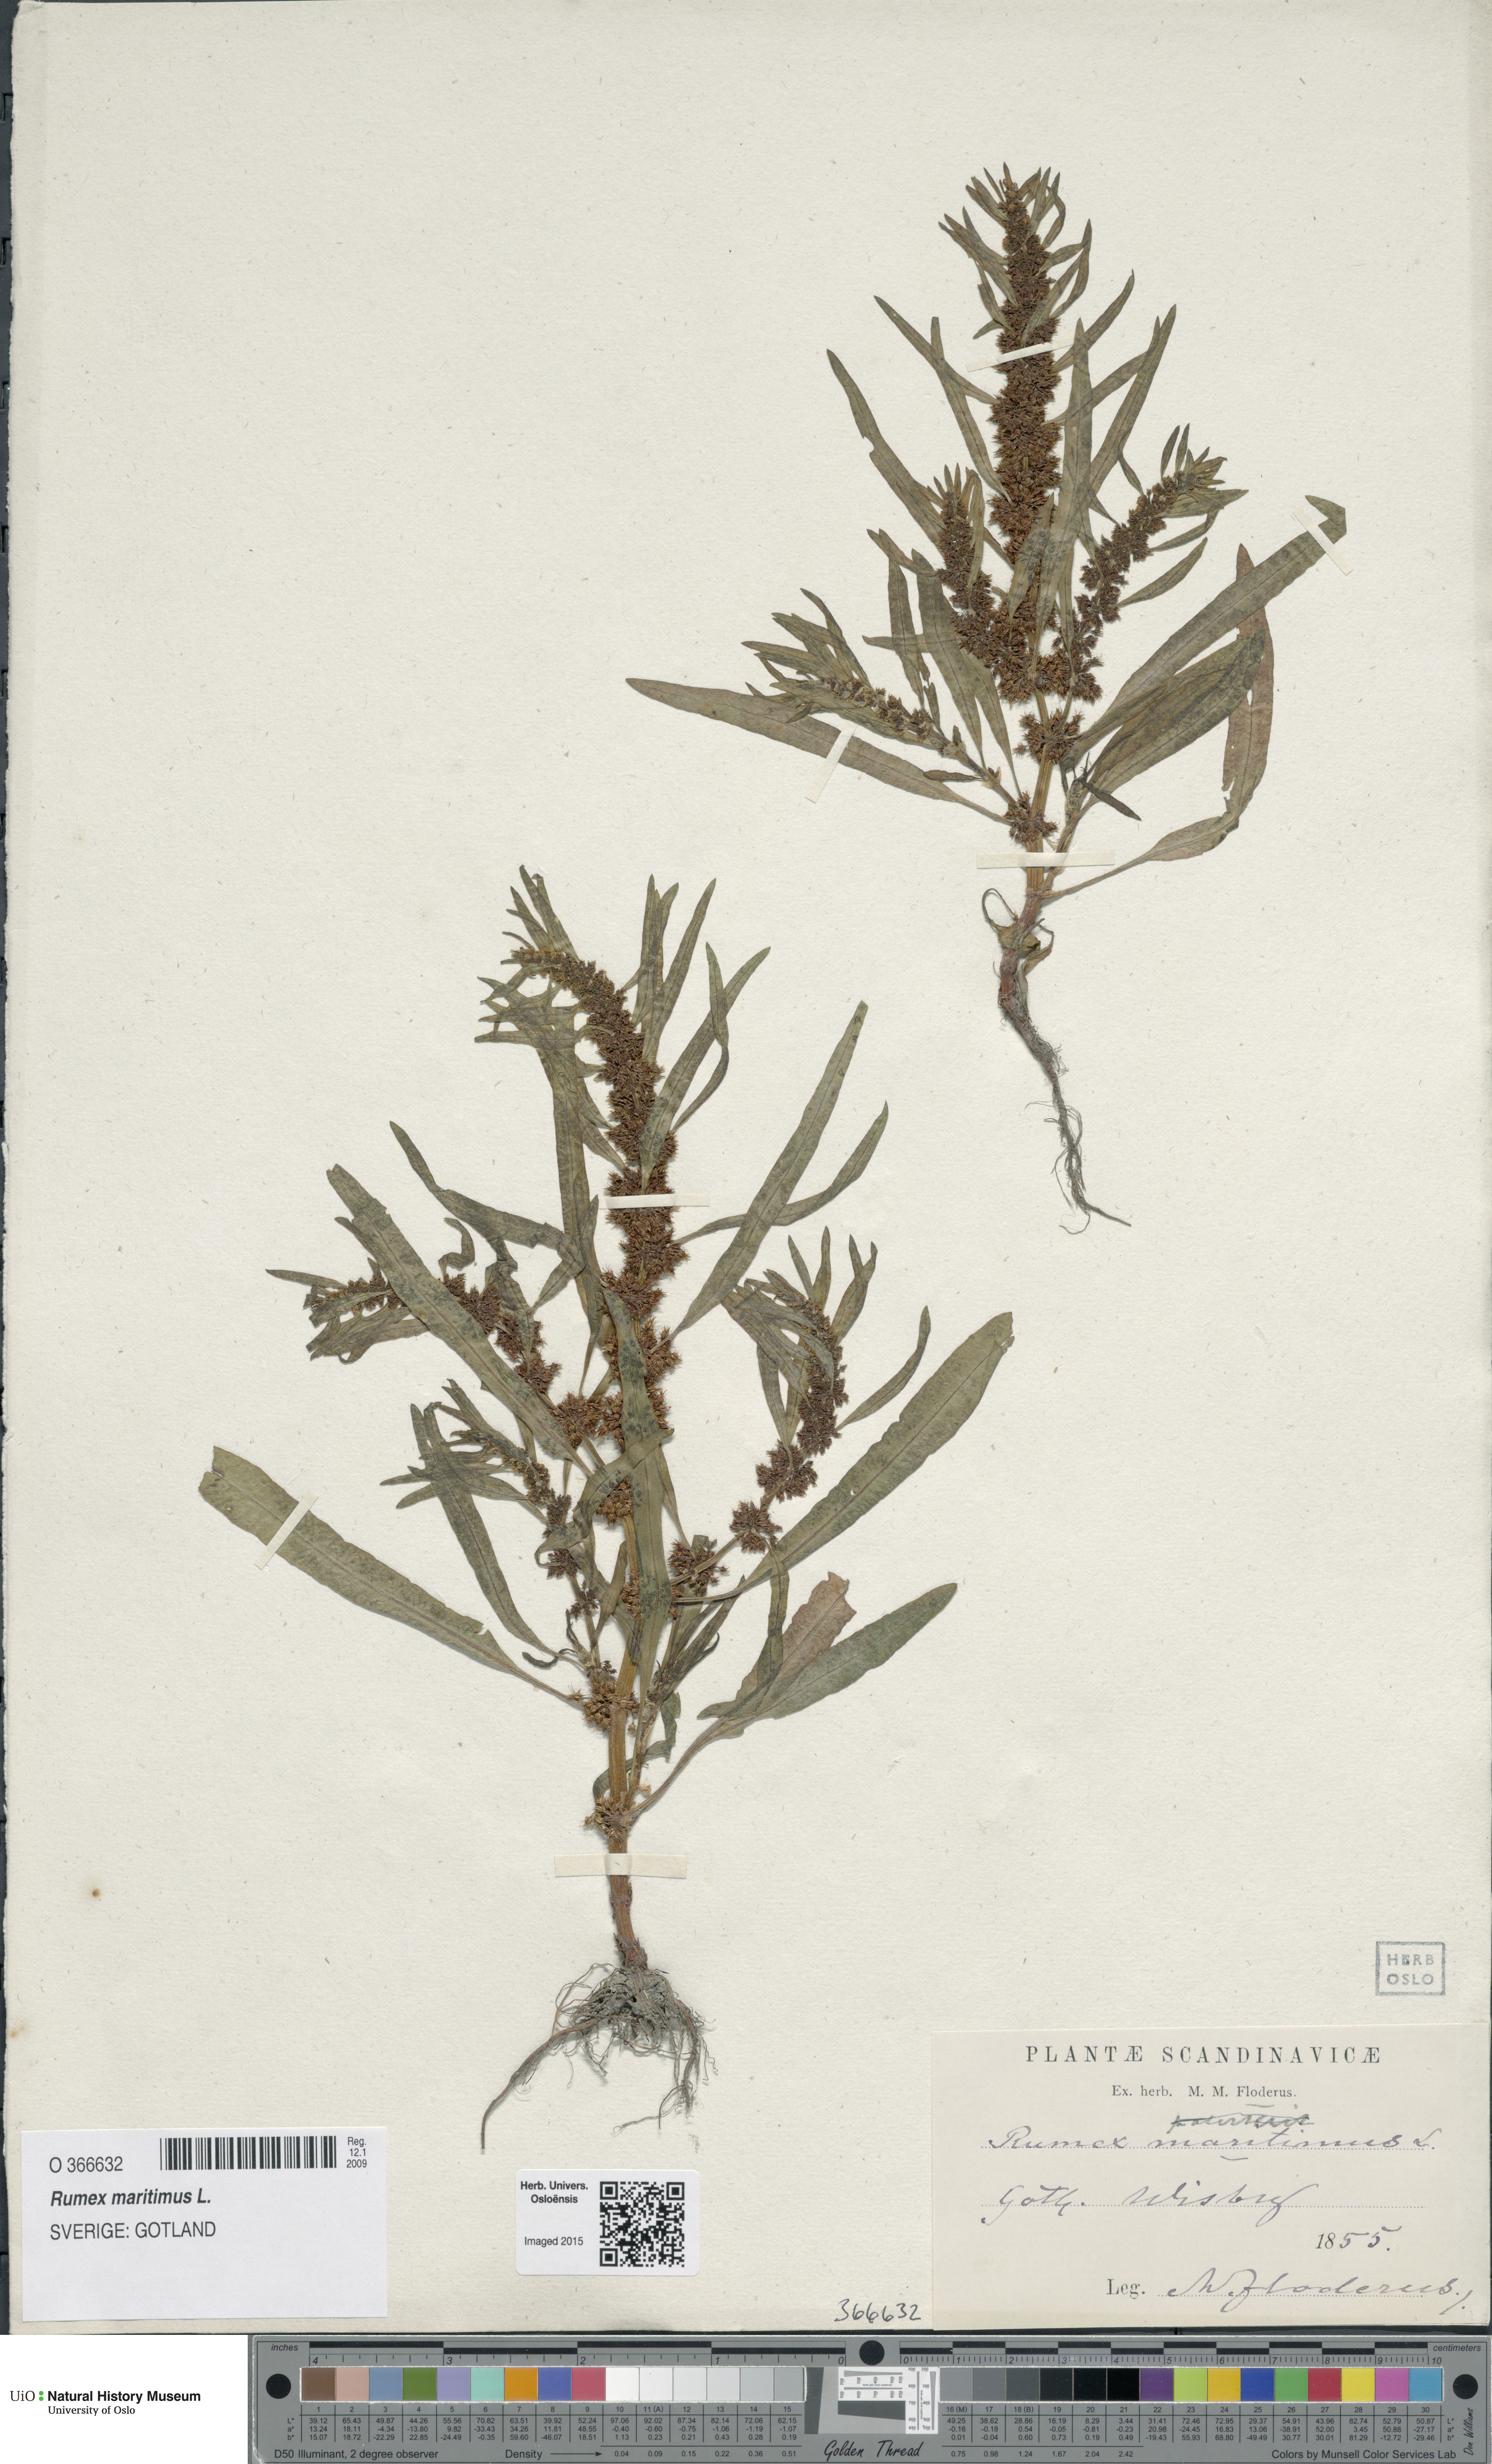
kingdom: Plantae
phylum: Tracheophyta
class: Magnoliopsida
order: Caryophyllales
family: Polygonaceae
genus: Rumex
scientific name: Rumex maritimus
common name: Golden dock
